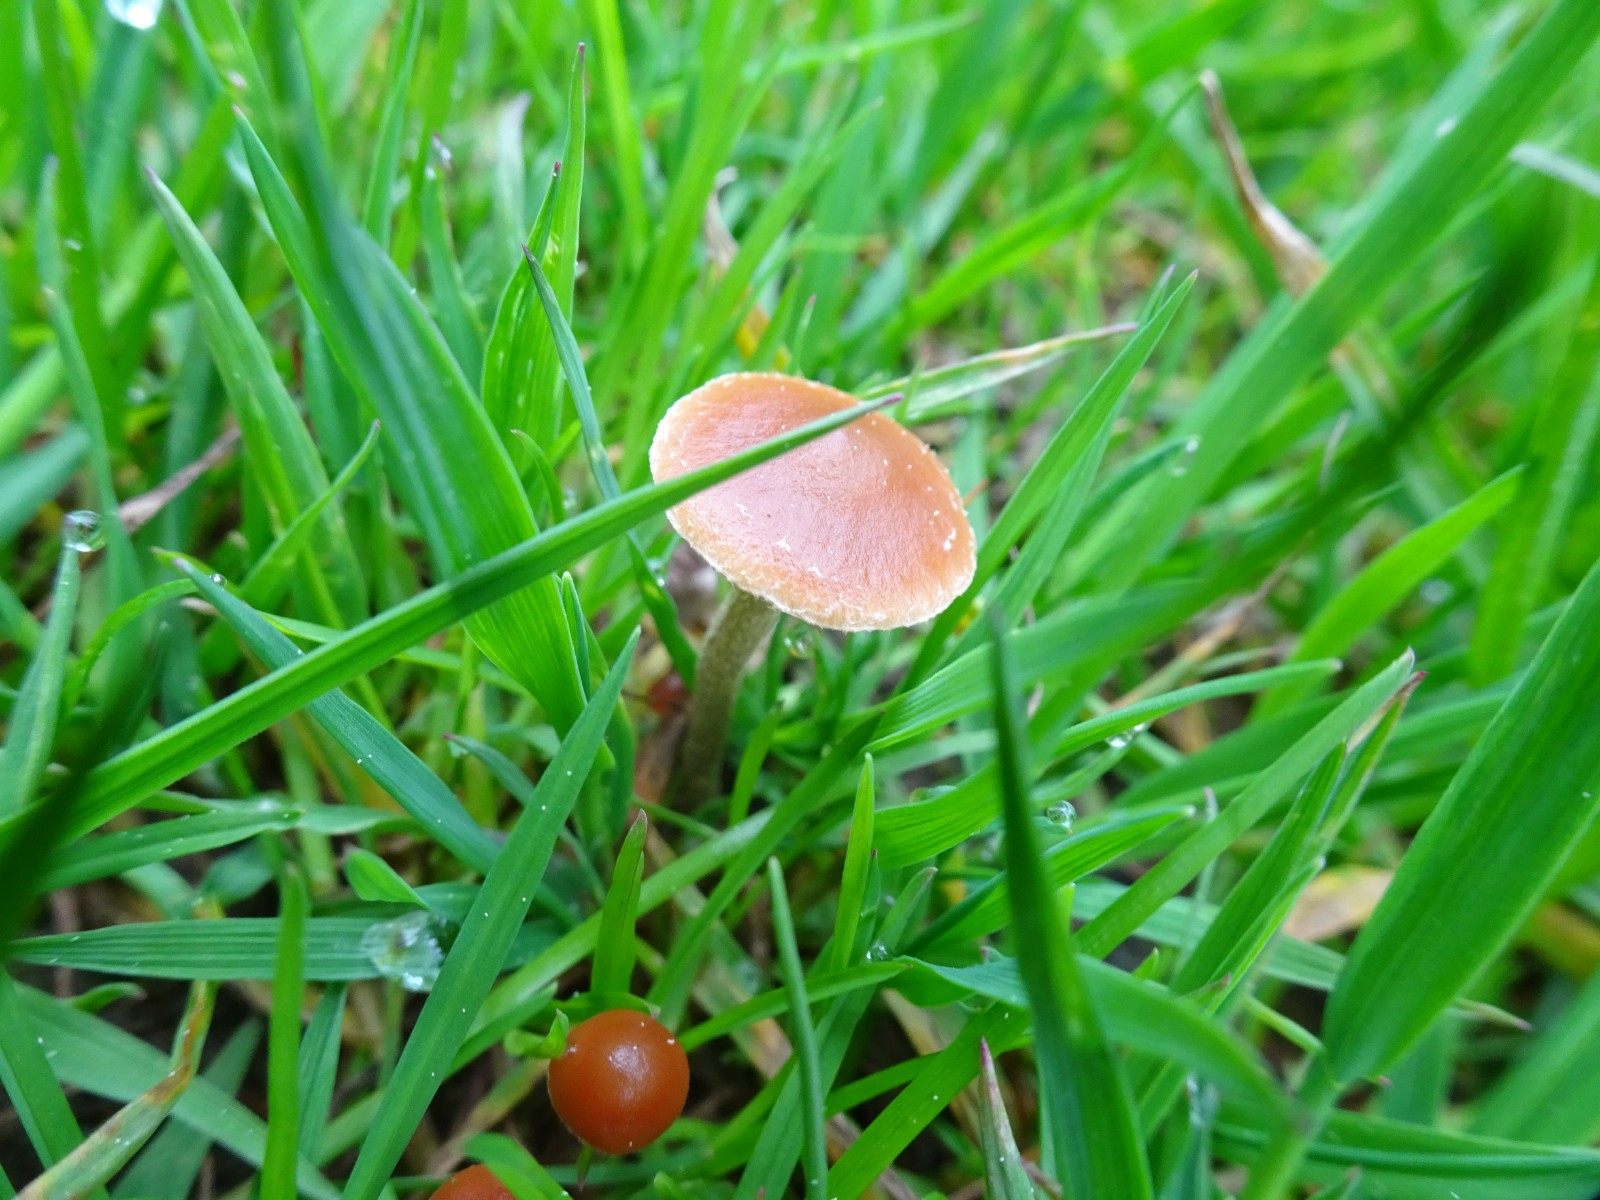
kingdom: Fungi
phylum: Basidiomycota
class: Agaricomycetes
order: Agaricales
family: Tubariaceae
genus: Tubaria
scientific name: Tubaria furfuracea
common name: kliddet fnughat
